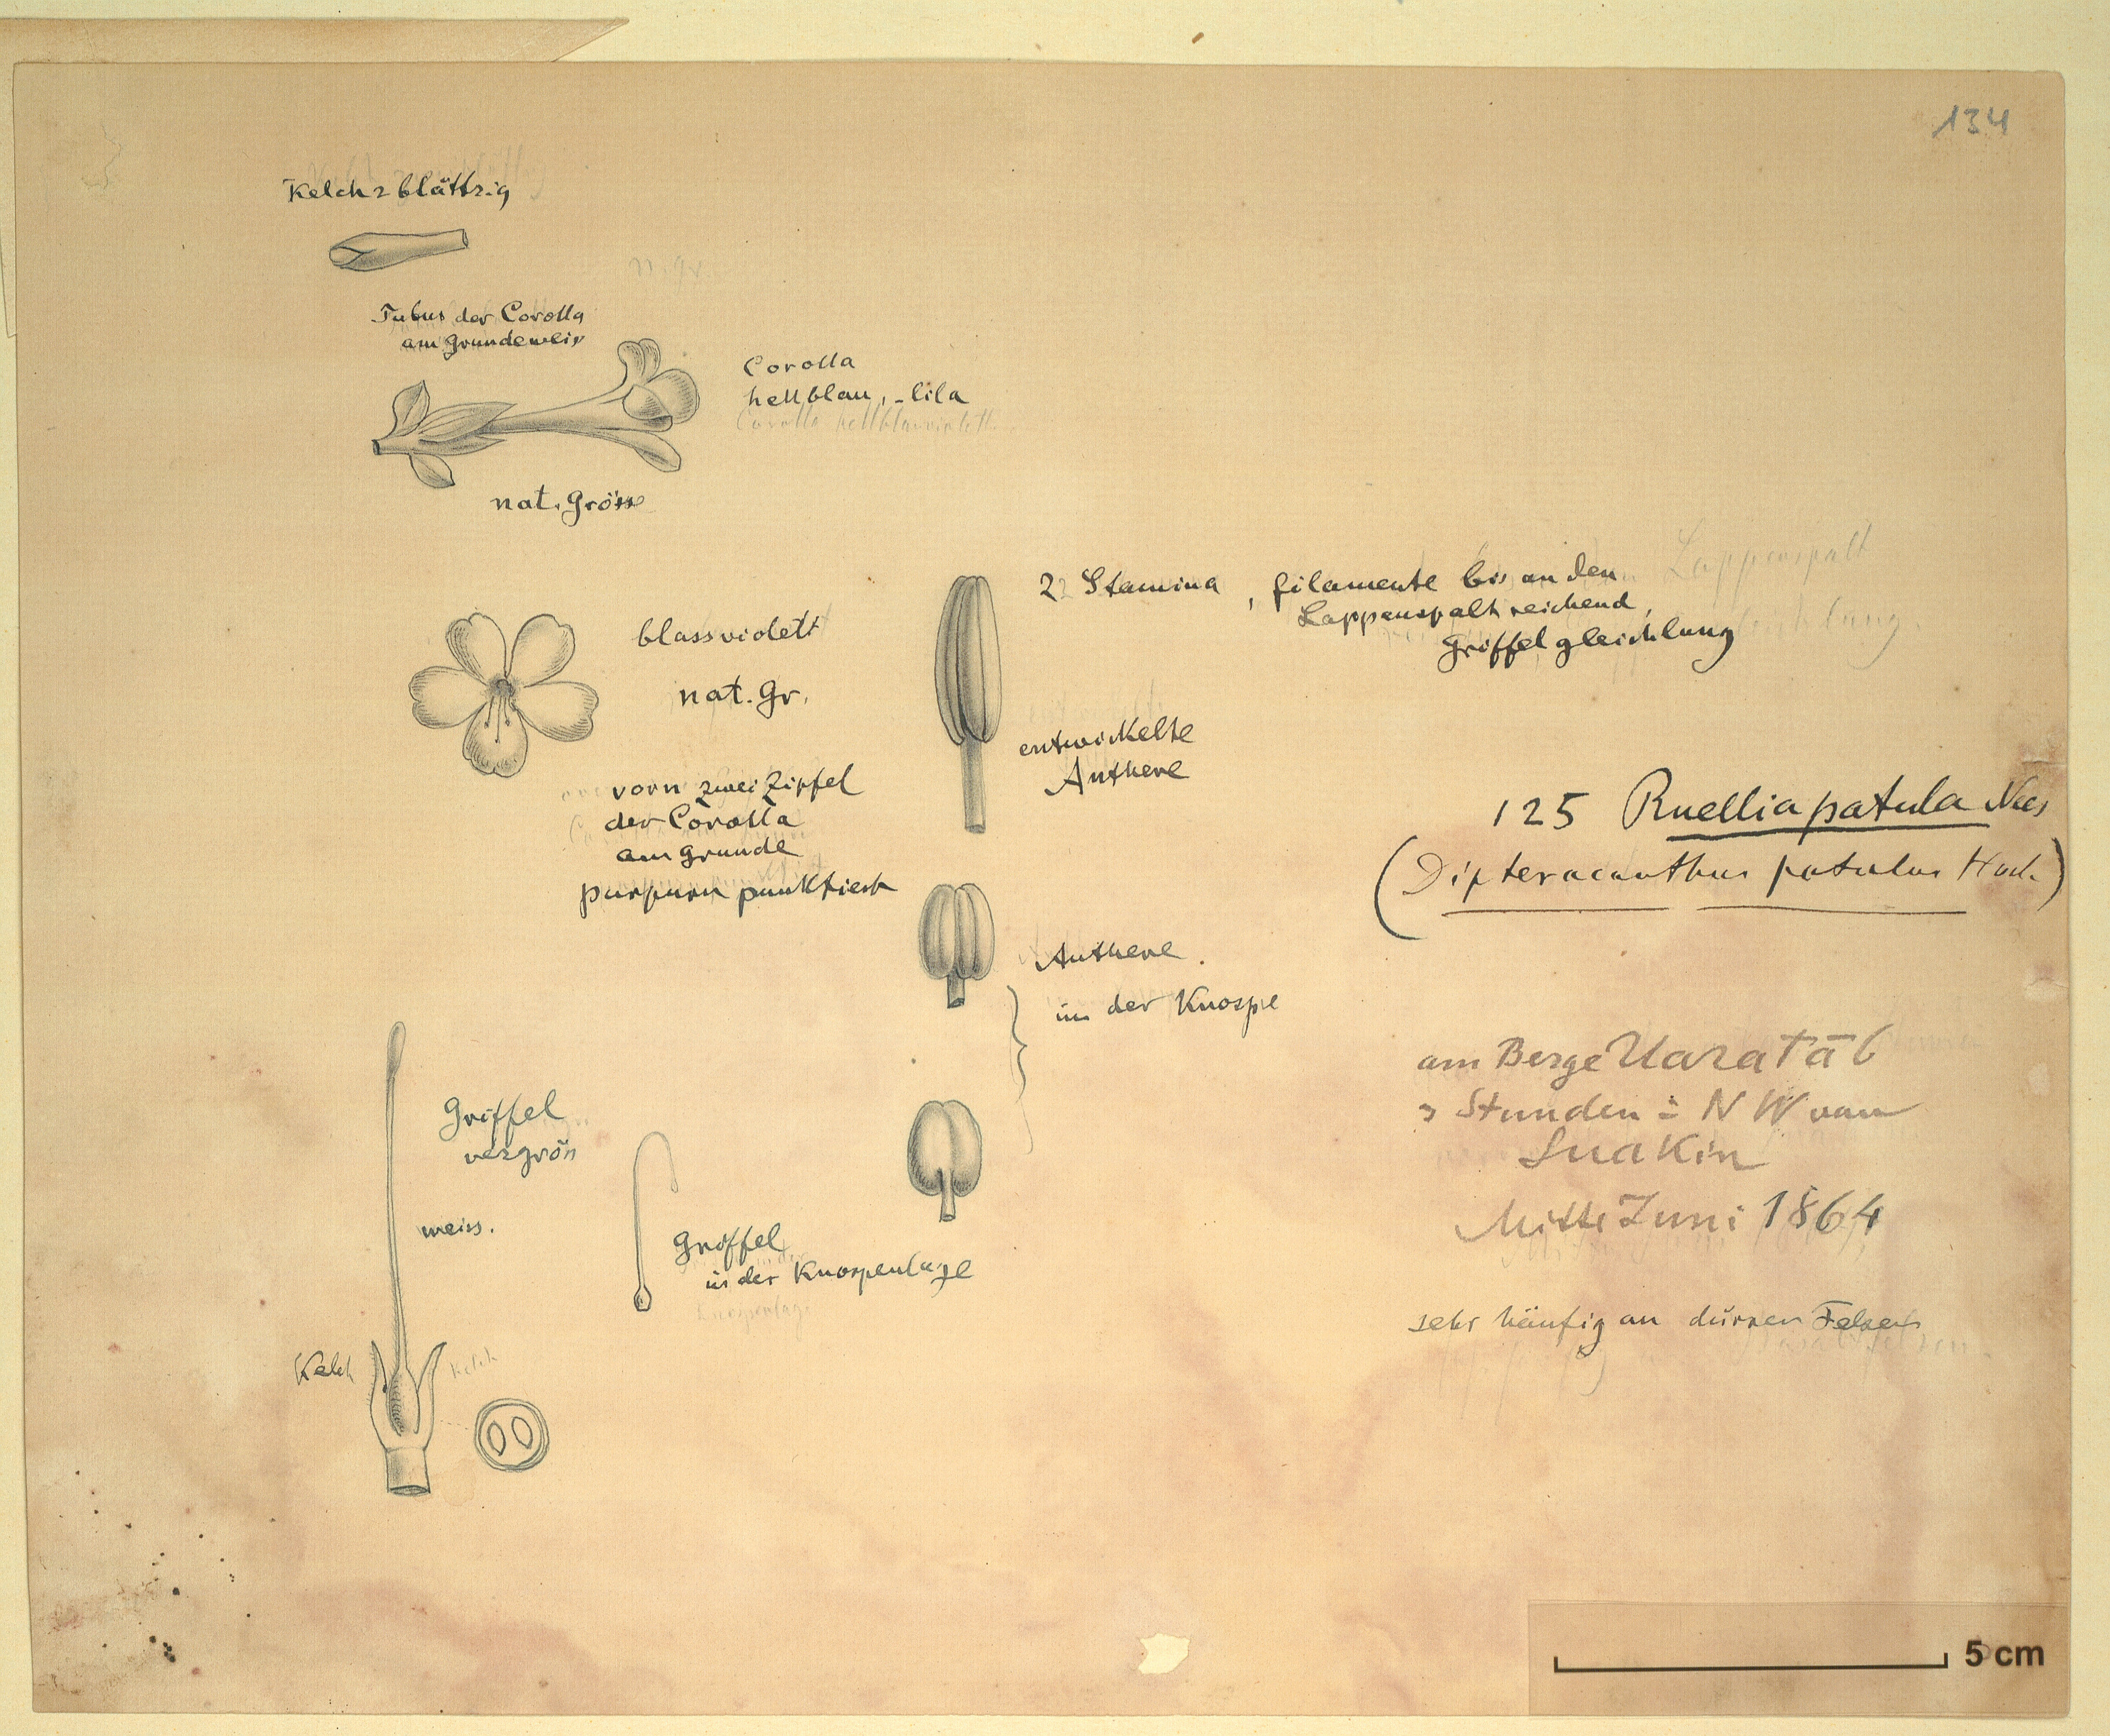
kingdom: Plantae
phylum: Tracheophyta
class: Magnoliopsida
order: Lamiales
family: Acanthaceae
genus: Ruellia
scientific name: Ruellia patula
